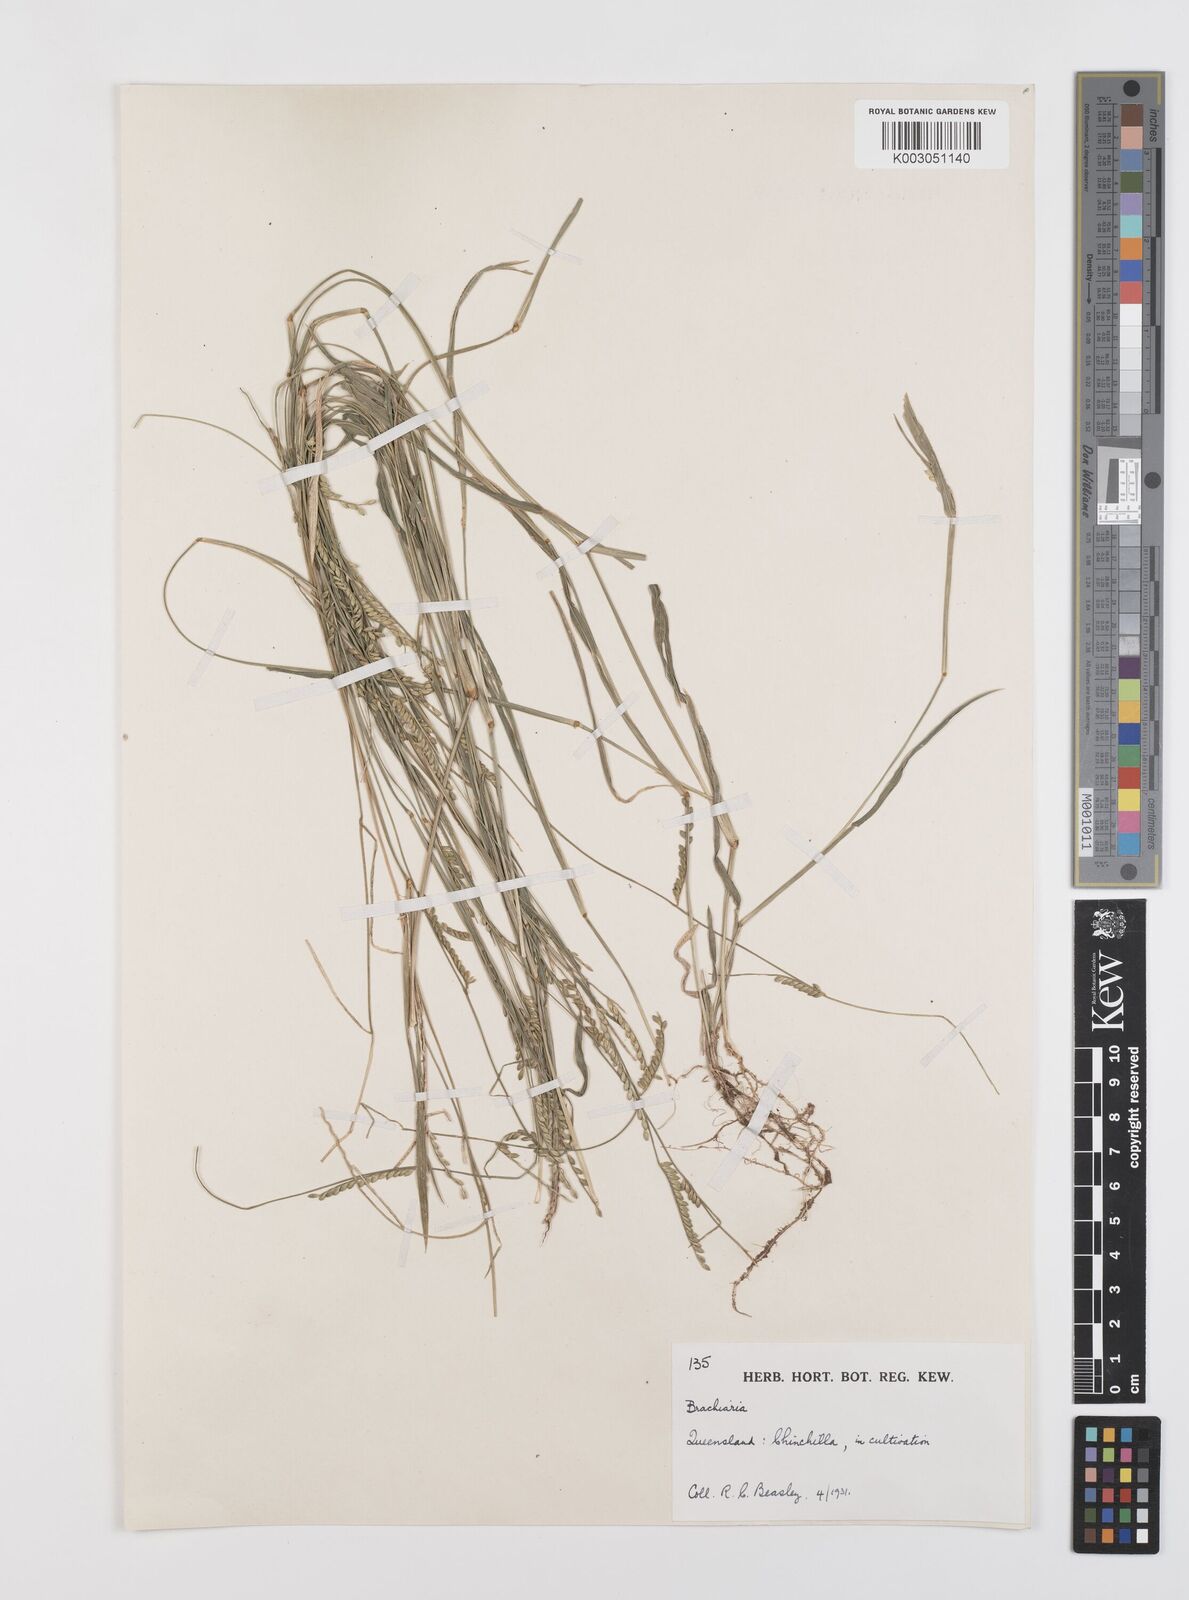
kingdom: Plantae
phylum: Tracheophyta
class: Liliopsida
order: Poales
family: Poaceae
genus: Urochloa
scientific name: Urochloa whiteana
